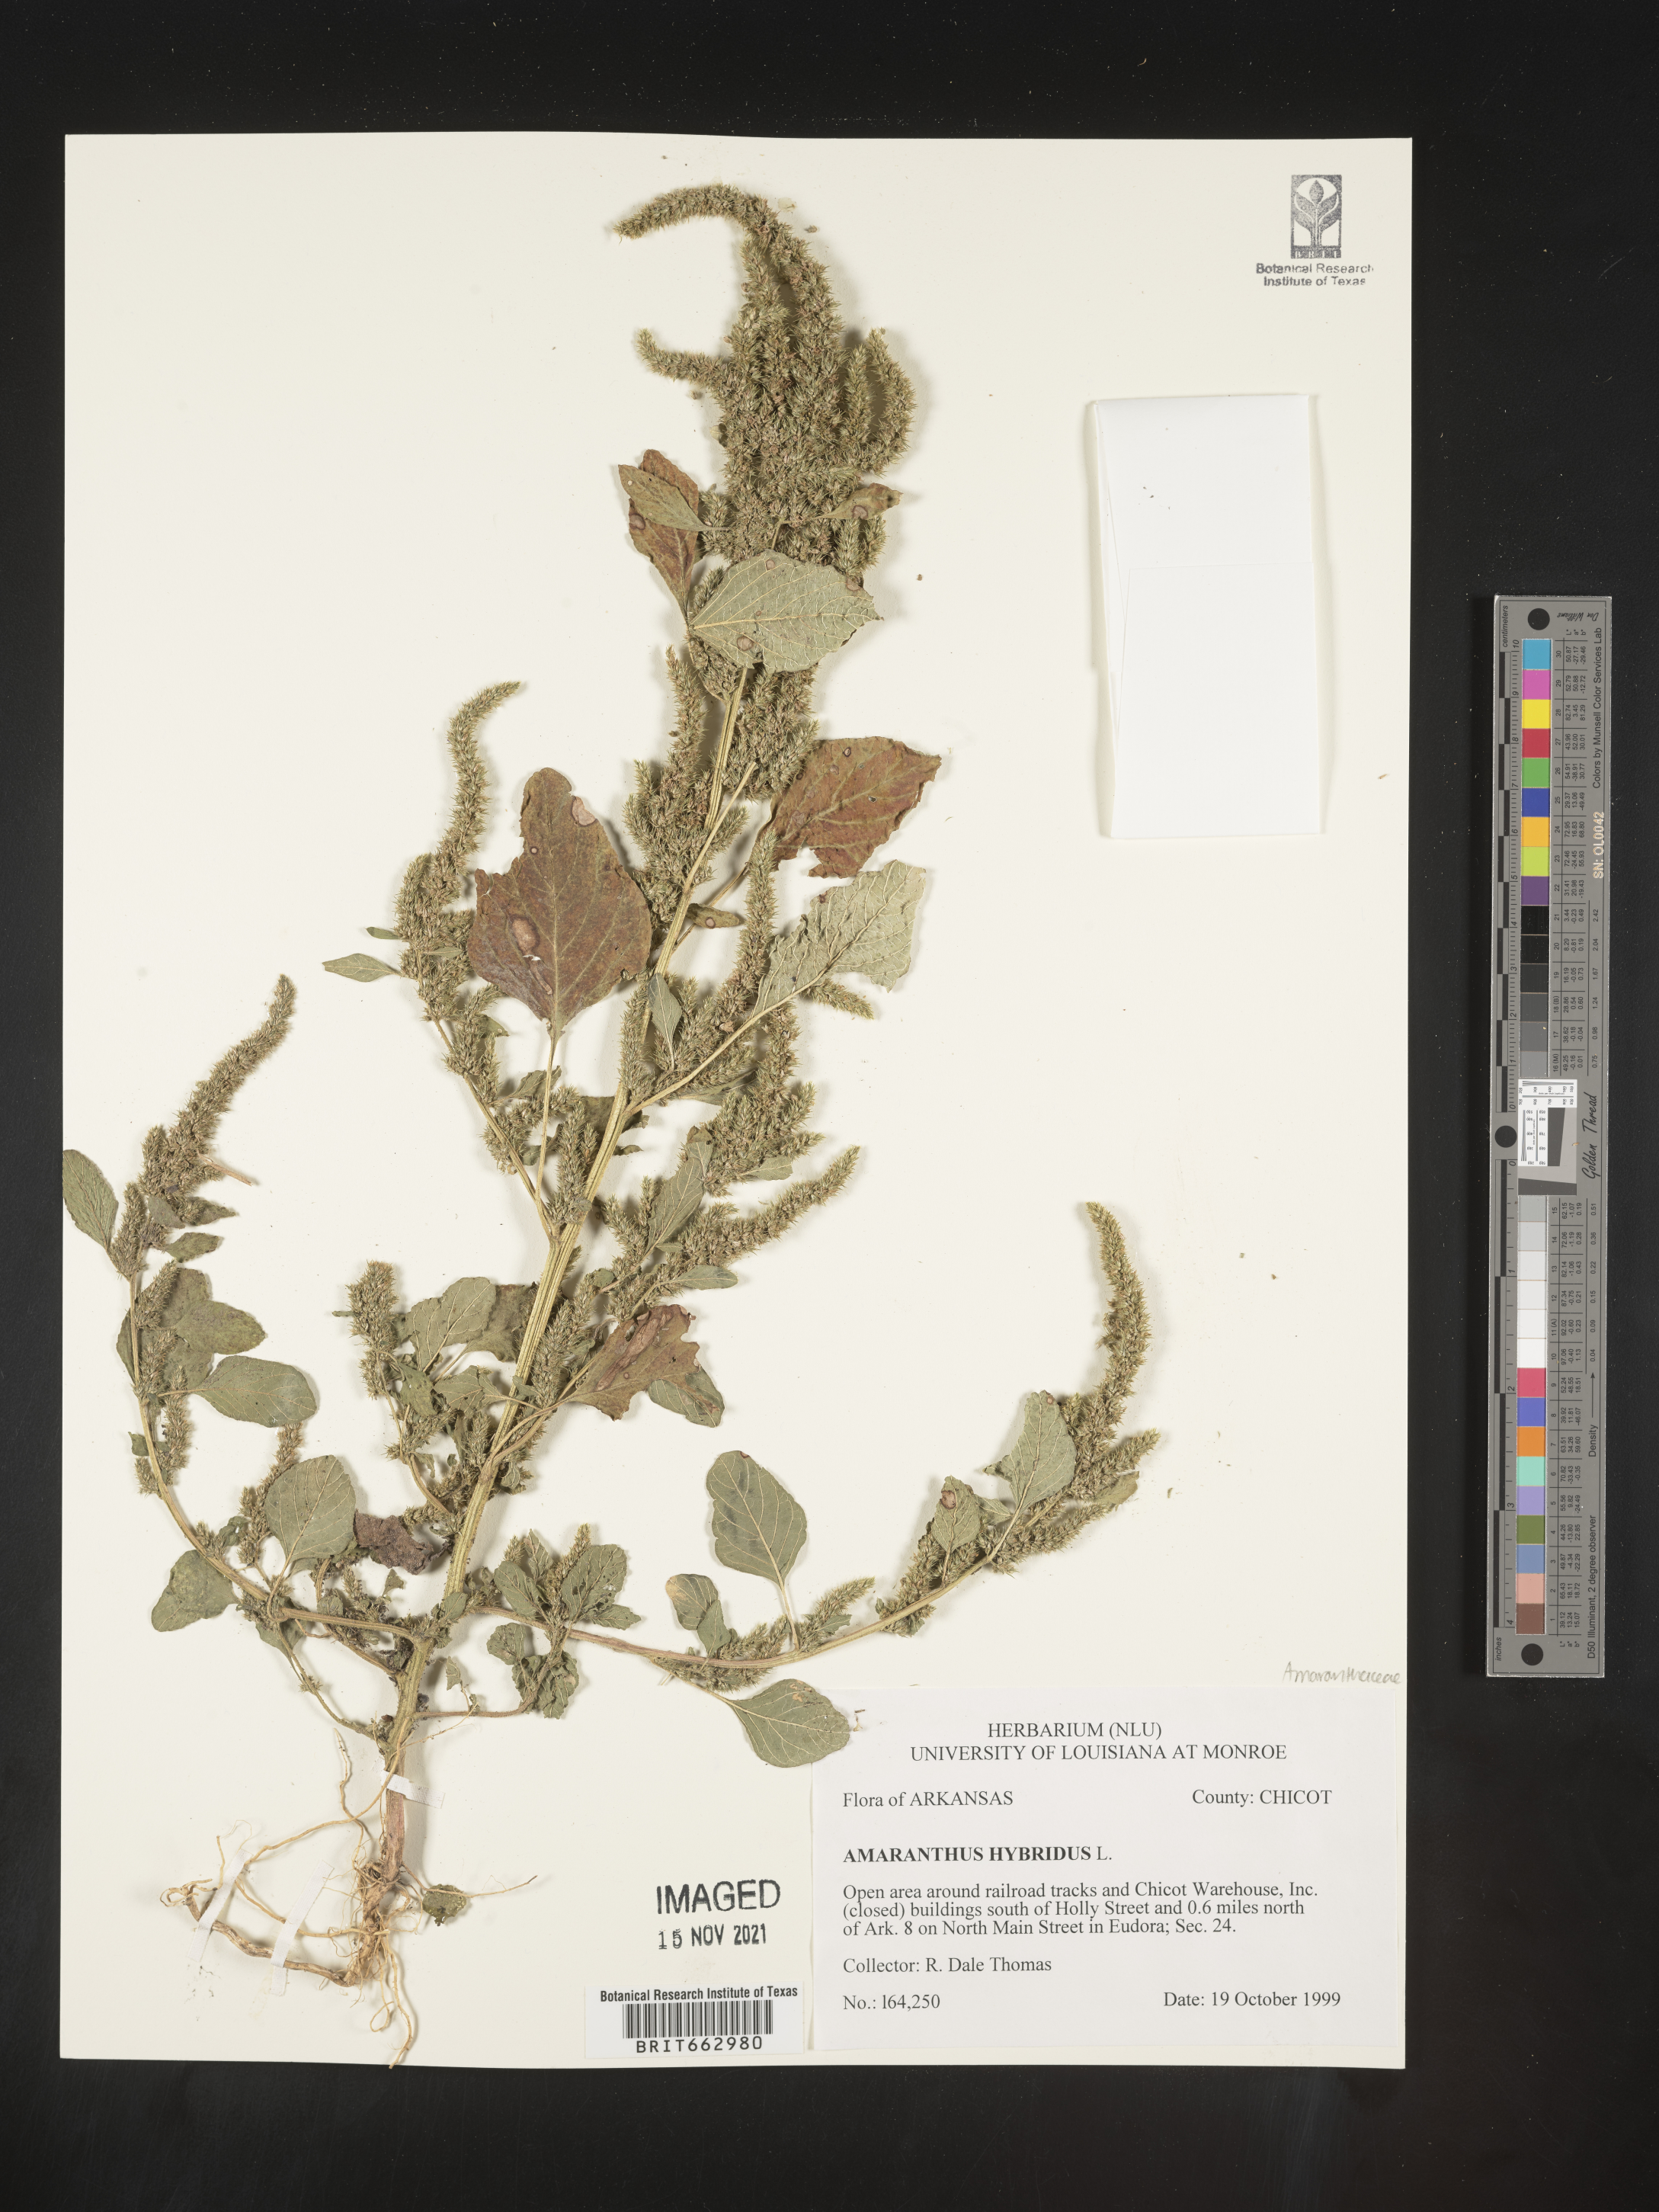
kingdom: Plantae
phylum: Tracheophyta
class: Magnoliopsida
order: Caryophyllales
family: Amaranthaceae
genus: Amaranthus
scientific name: Amaranthus hybridus
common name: Green amaranth
